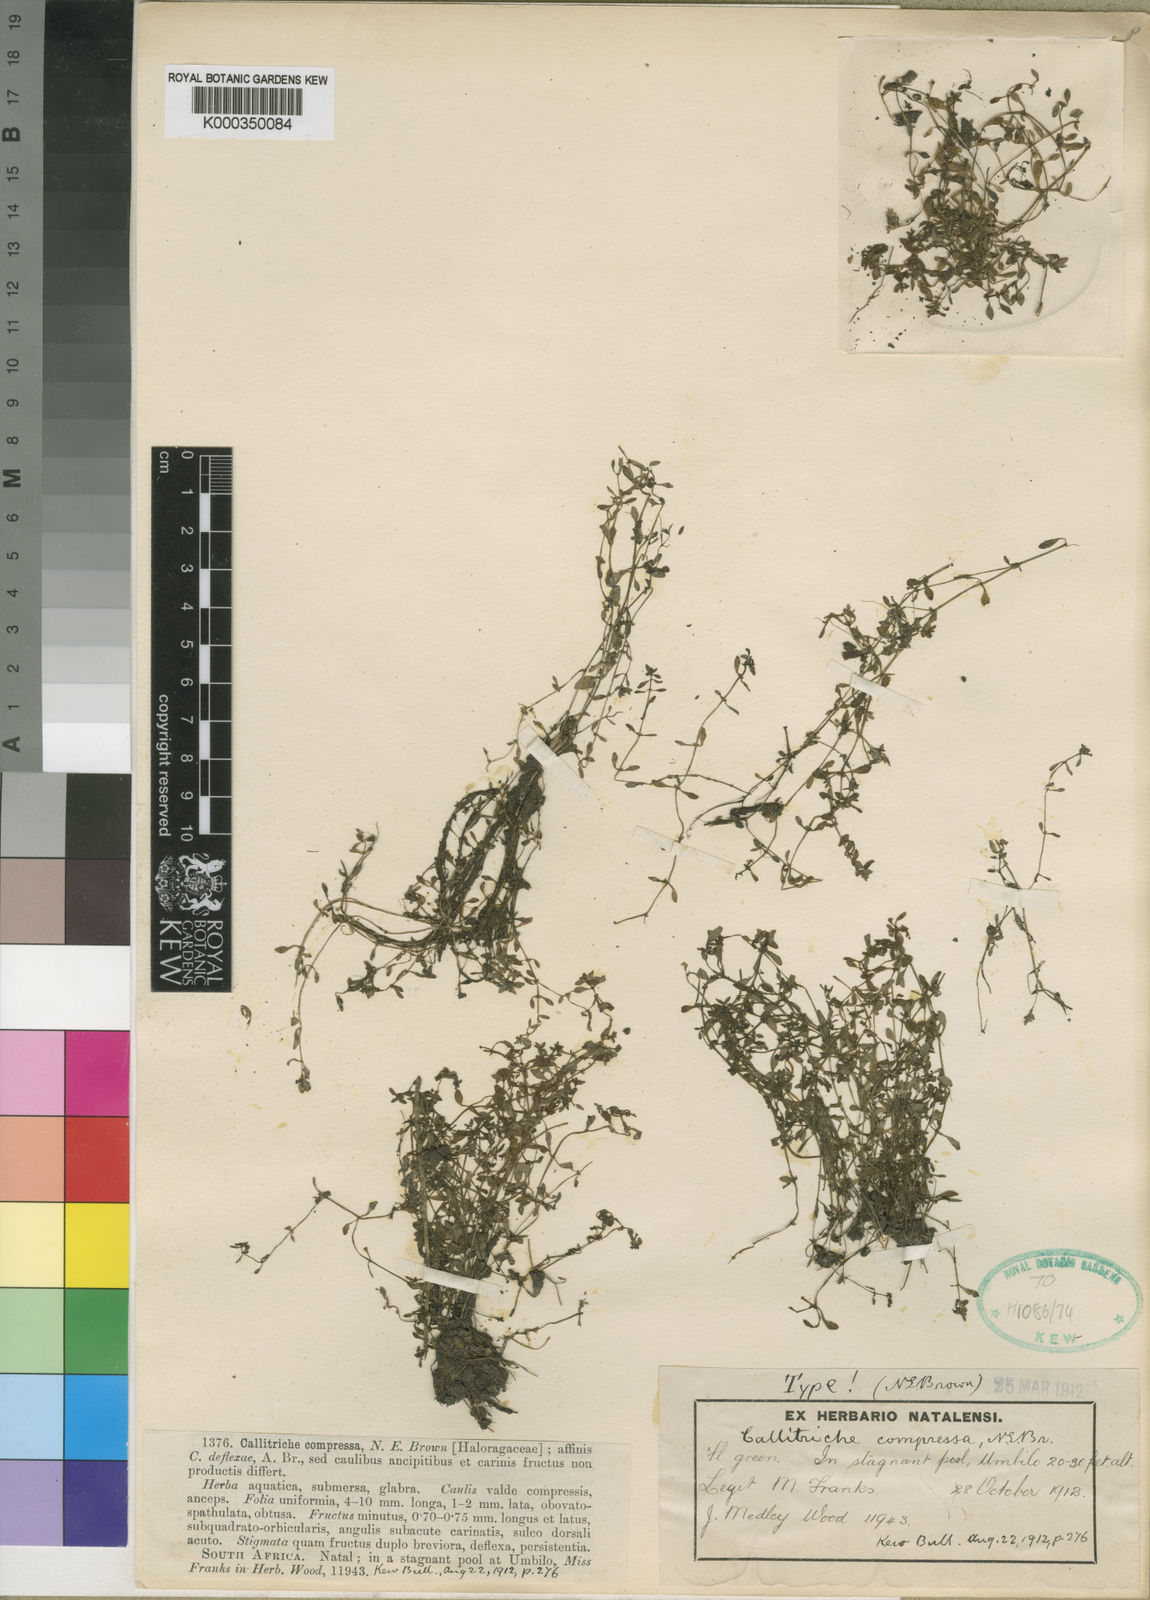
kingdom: Plantae
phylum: Tracheophyta
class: Magnoliopsida
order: Lamiales
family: Plantaginaceae
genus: Callitriche
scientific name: Callitriche compressa
